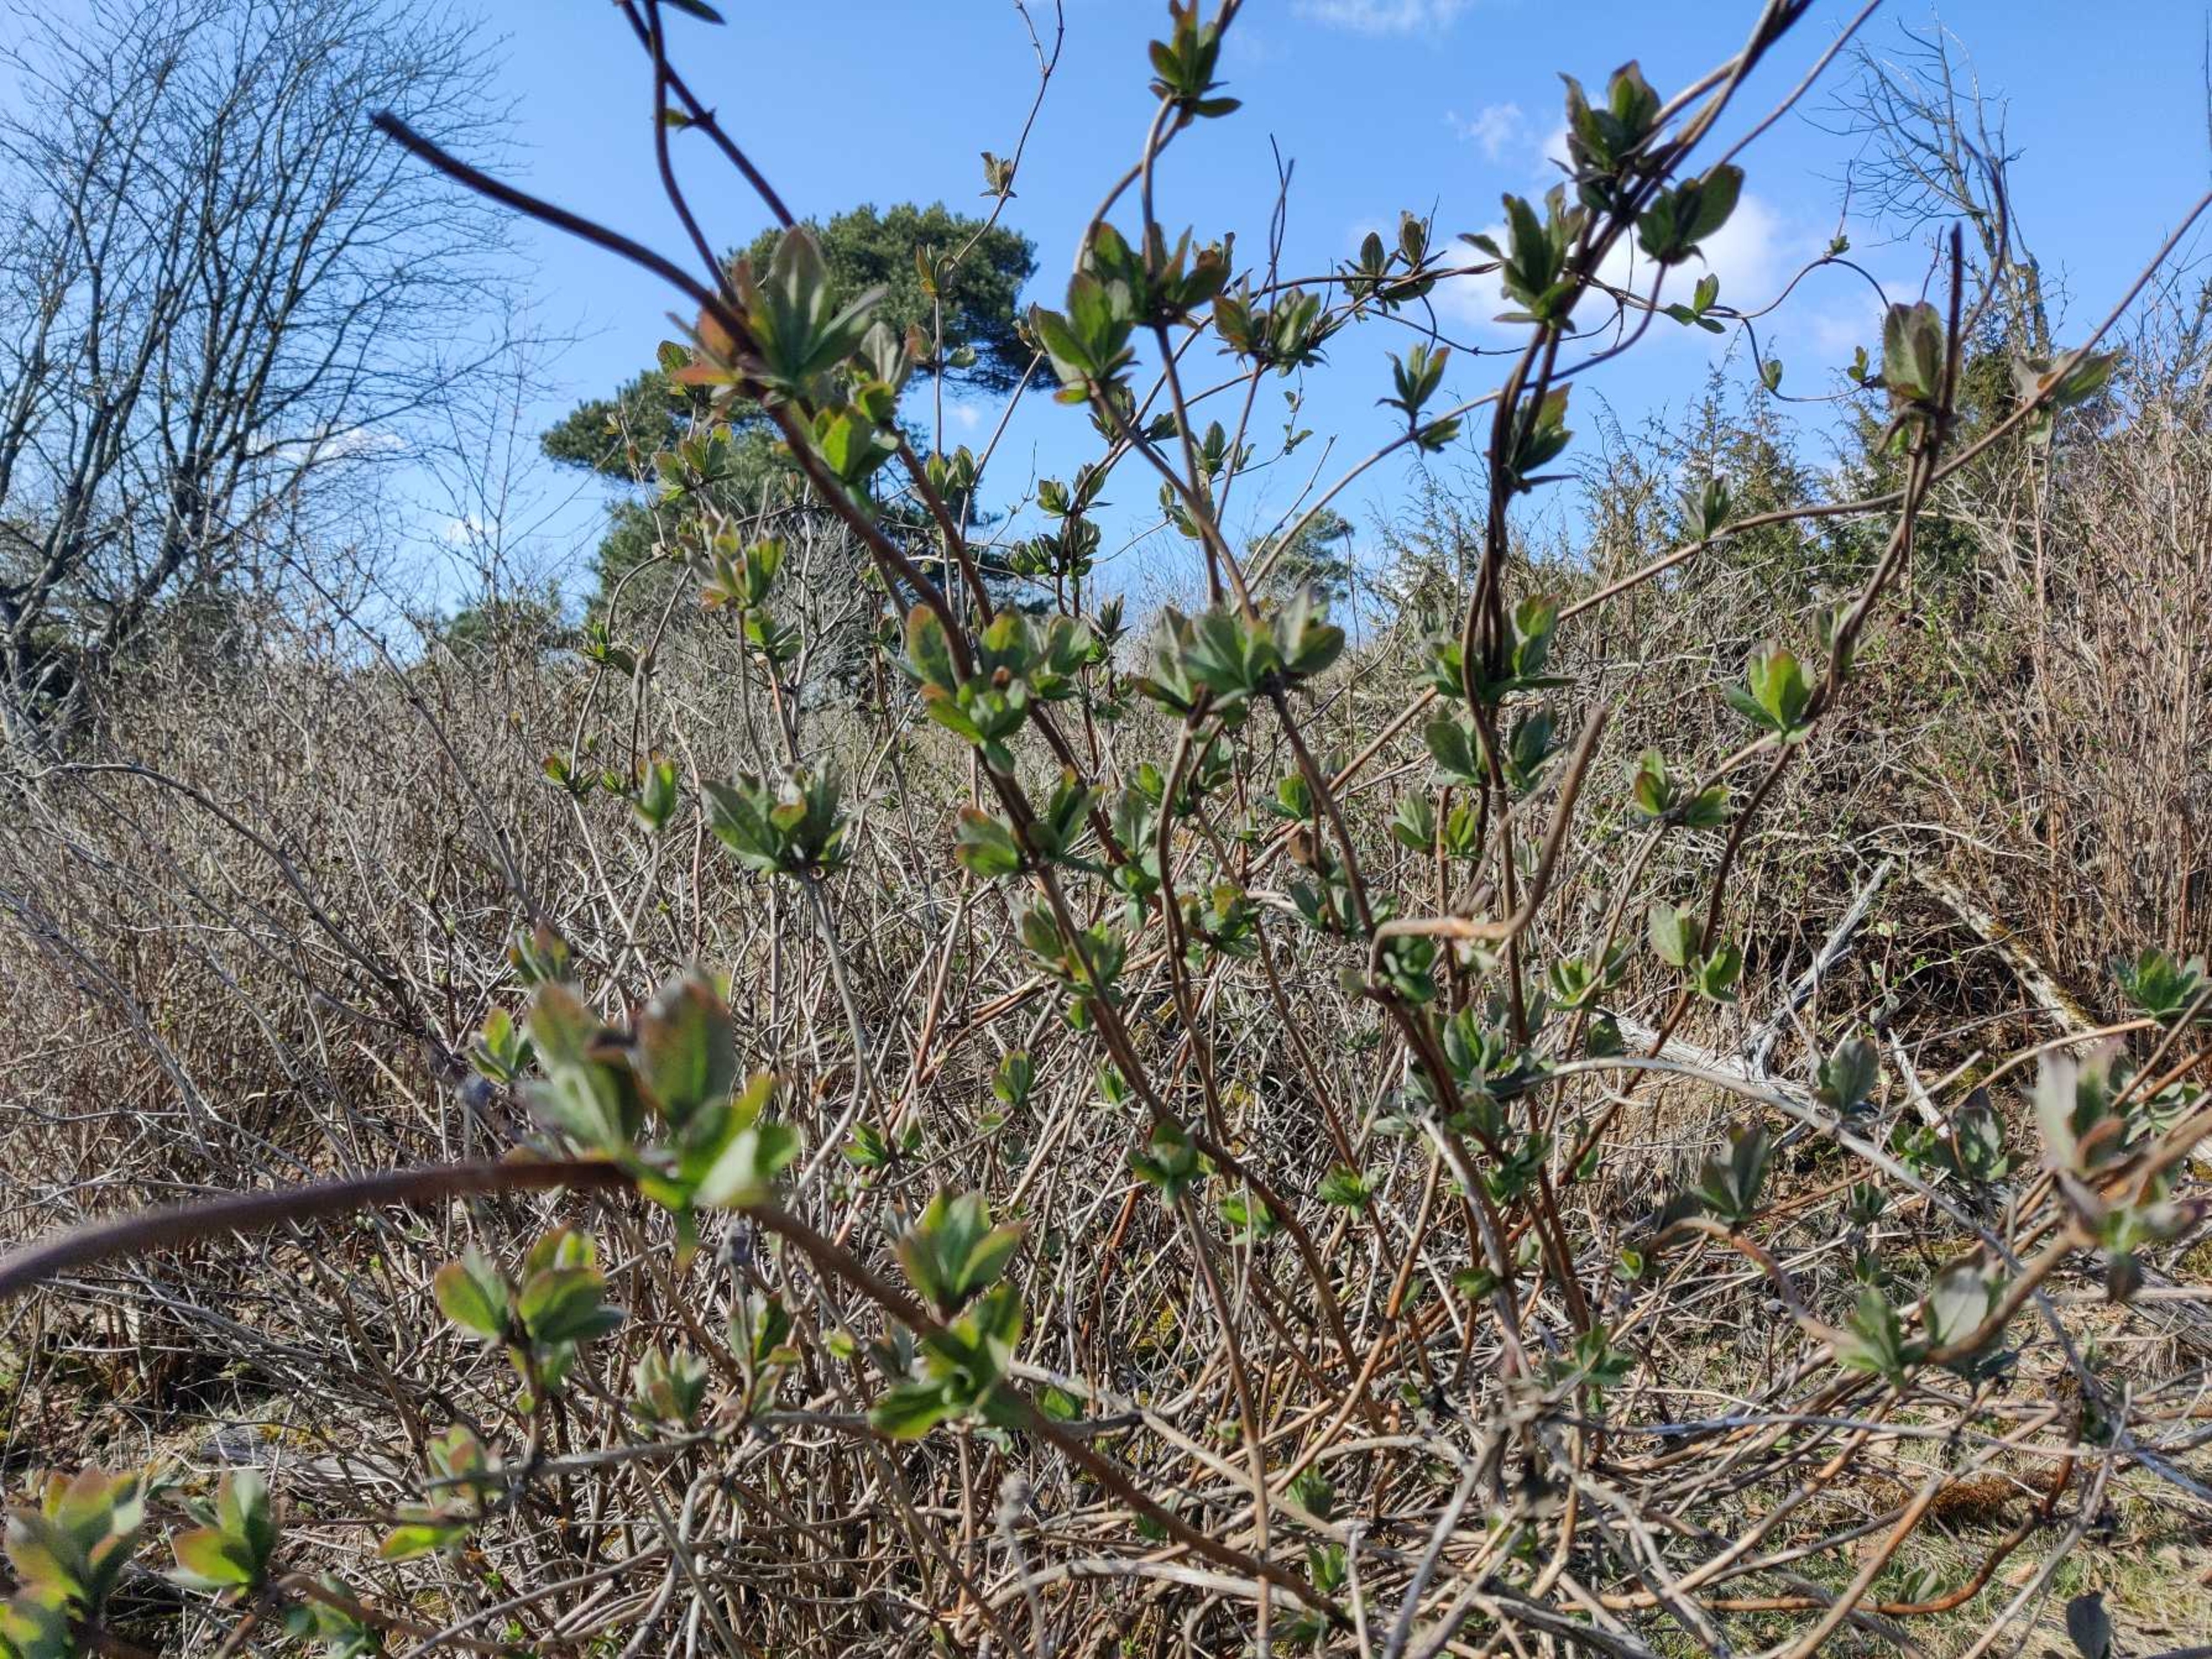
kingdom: Plantae
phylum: Tracheophyta
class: Magnoliopsida
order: Dipsacales
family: Caprifoliaceae
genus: Lonicera
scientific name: Lonicera periclymenum
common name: Almindelig gedeblad
